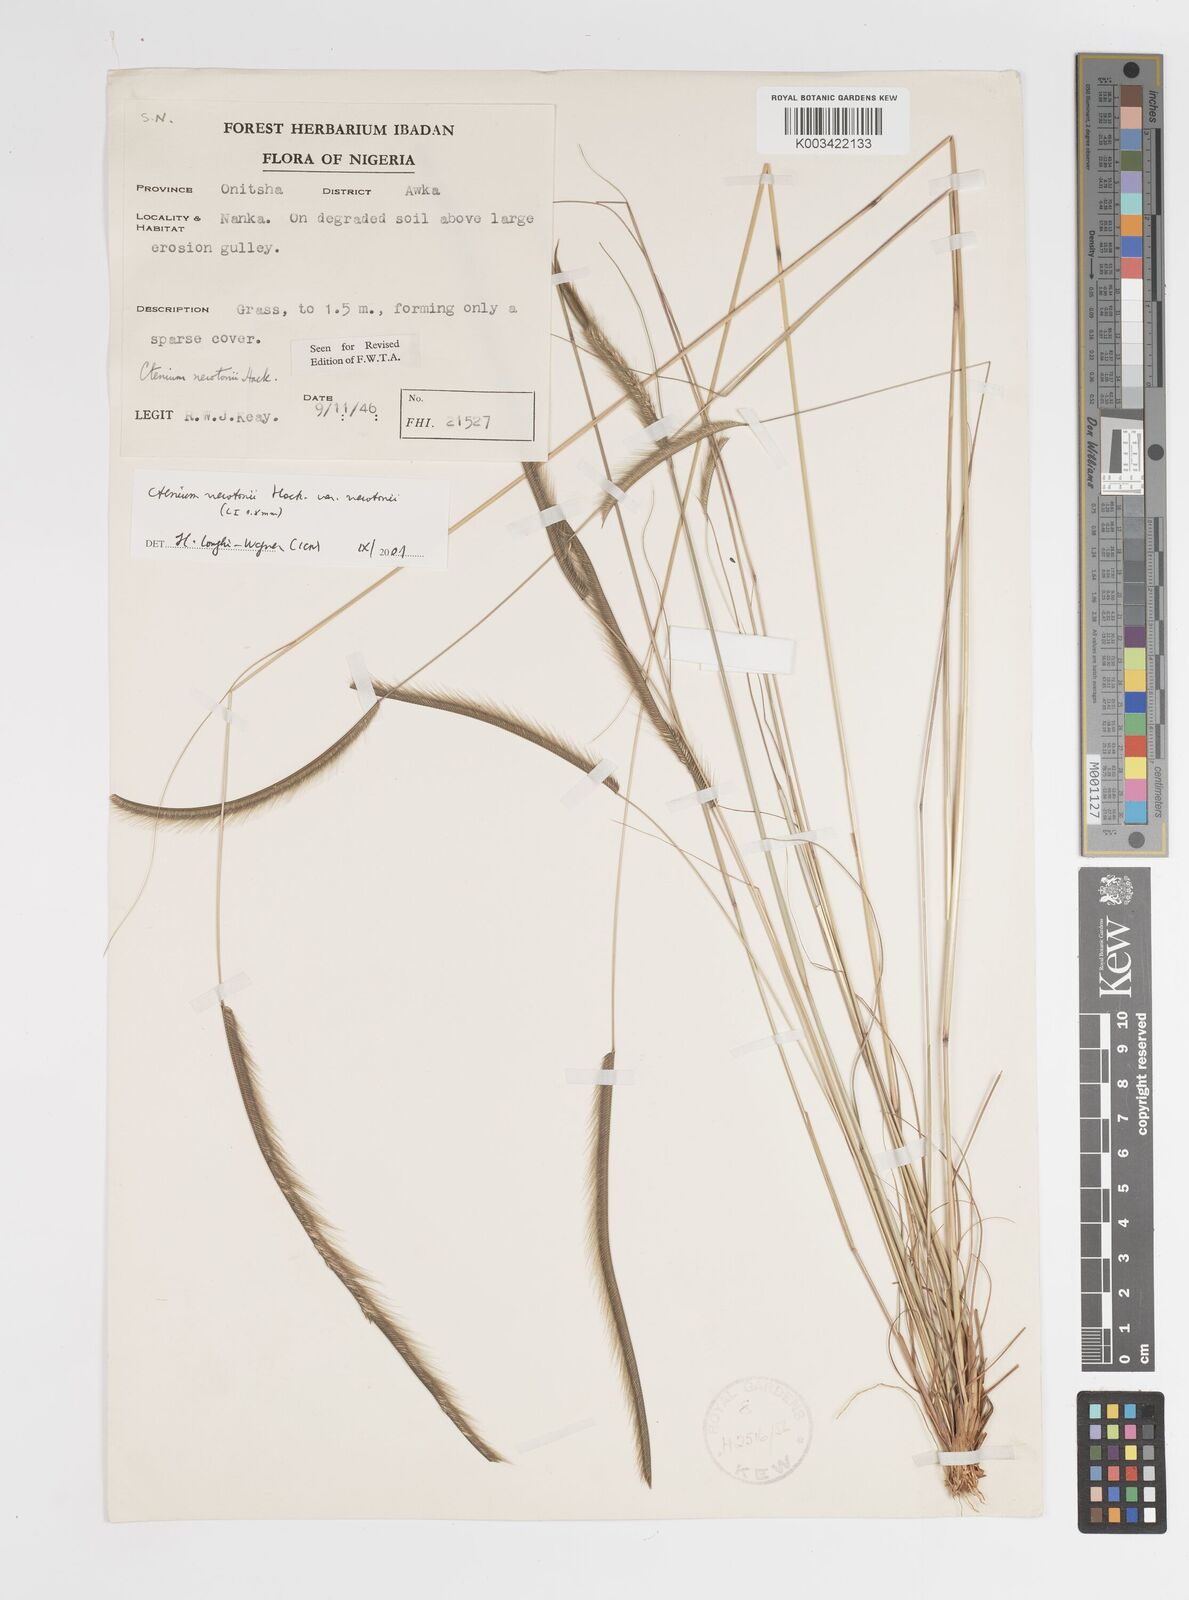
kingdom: Plantae
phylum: Tracheophyta
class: Liliopsida
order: Poales
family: Poaceae
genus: Ctenium
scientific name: Ctenium newtonii
